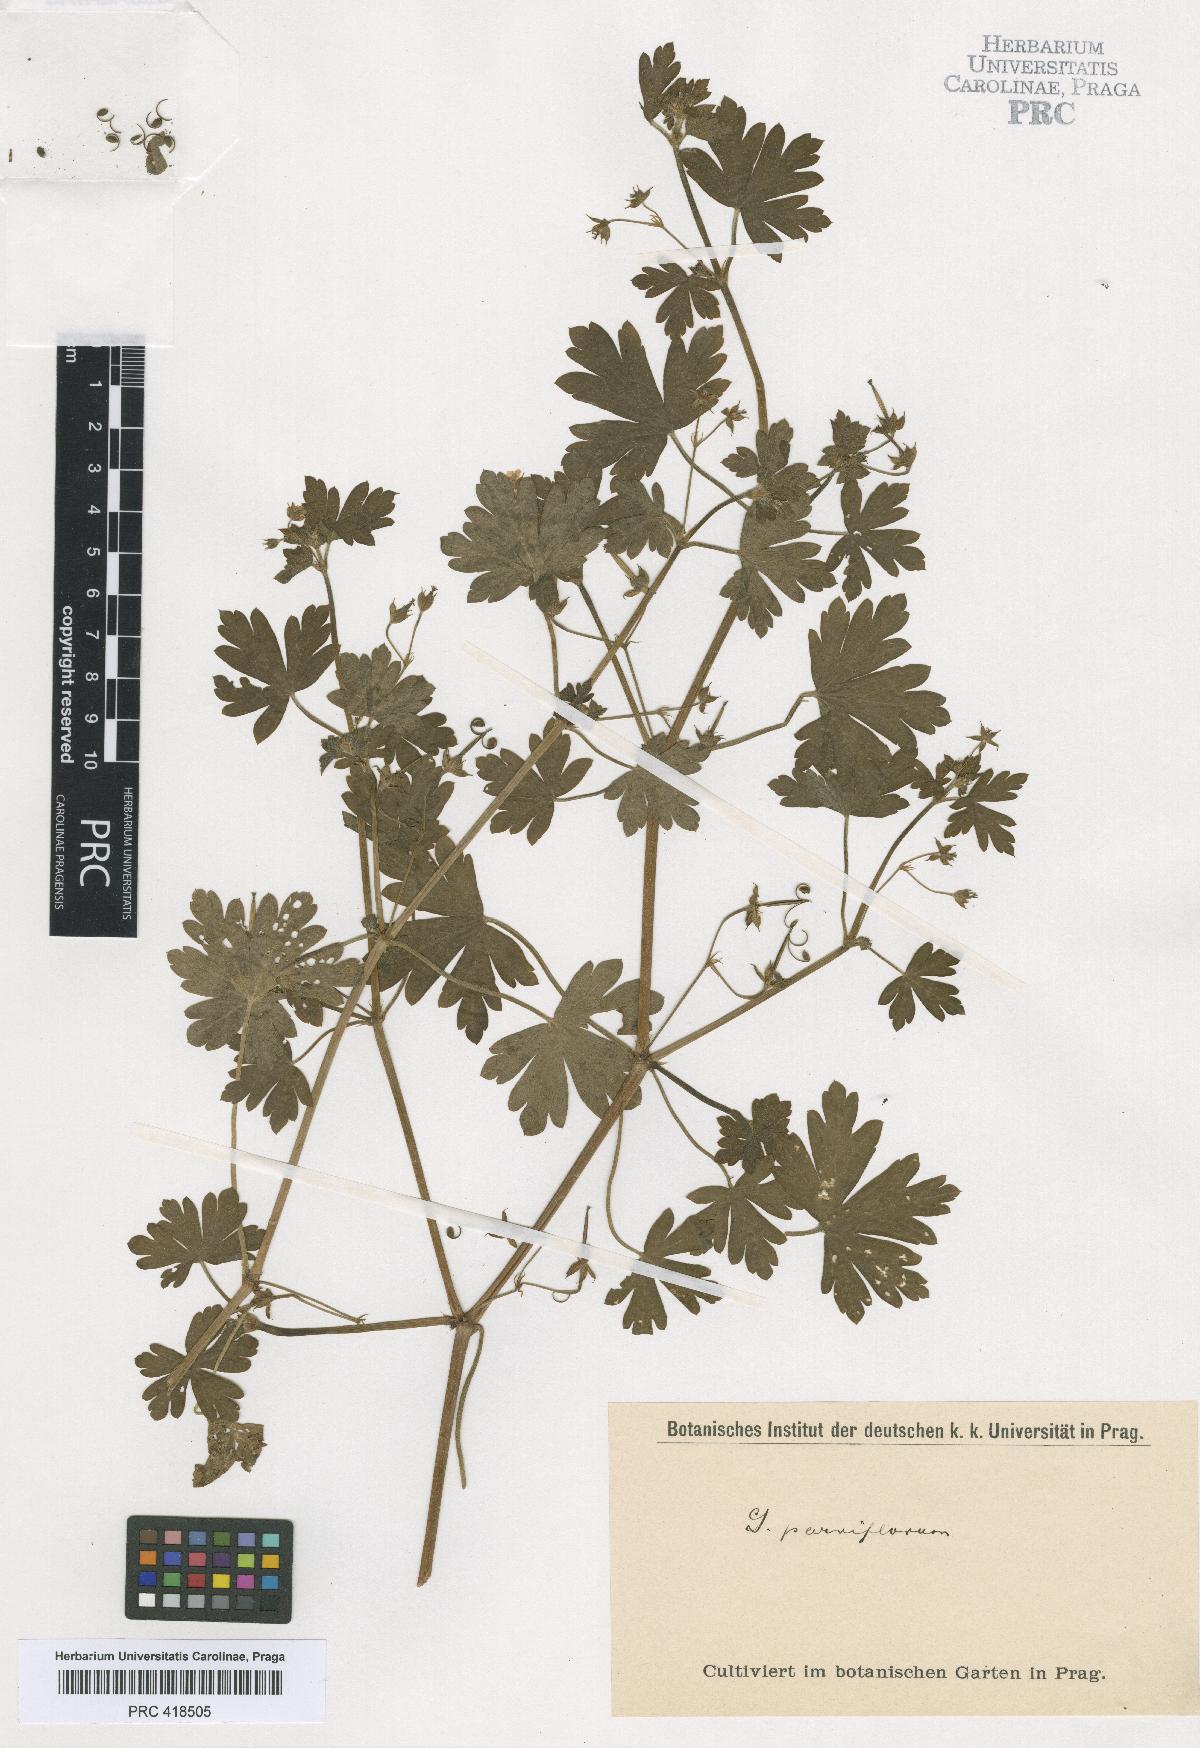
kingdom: Plantae
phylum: Tracheophyta
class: Magnoliopsida
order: Geraniales
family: Geraniaceae
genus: Geranium
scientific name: Geranium nepalense
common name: Nepalese crane's-bill
